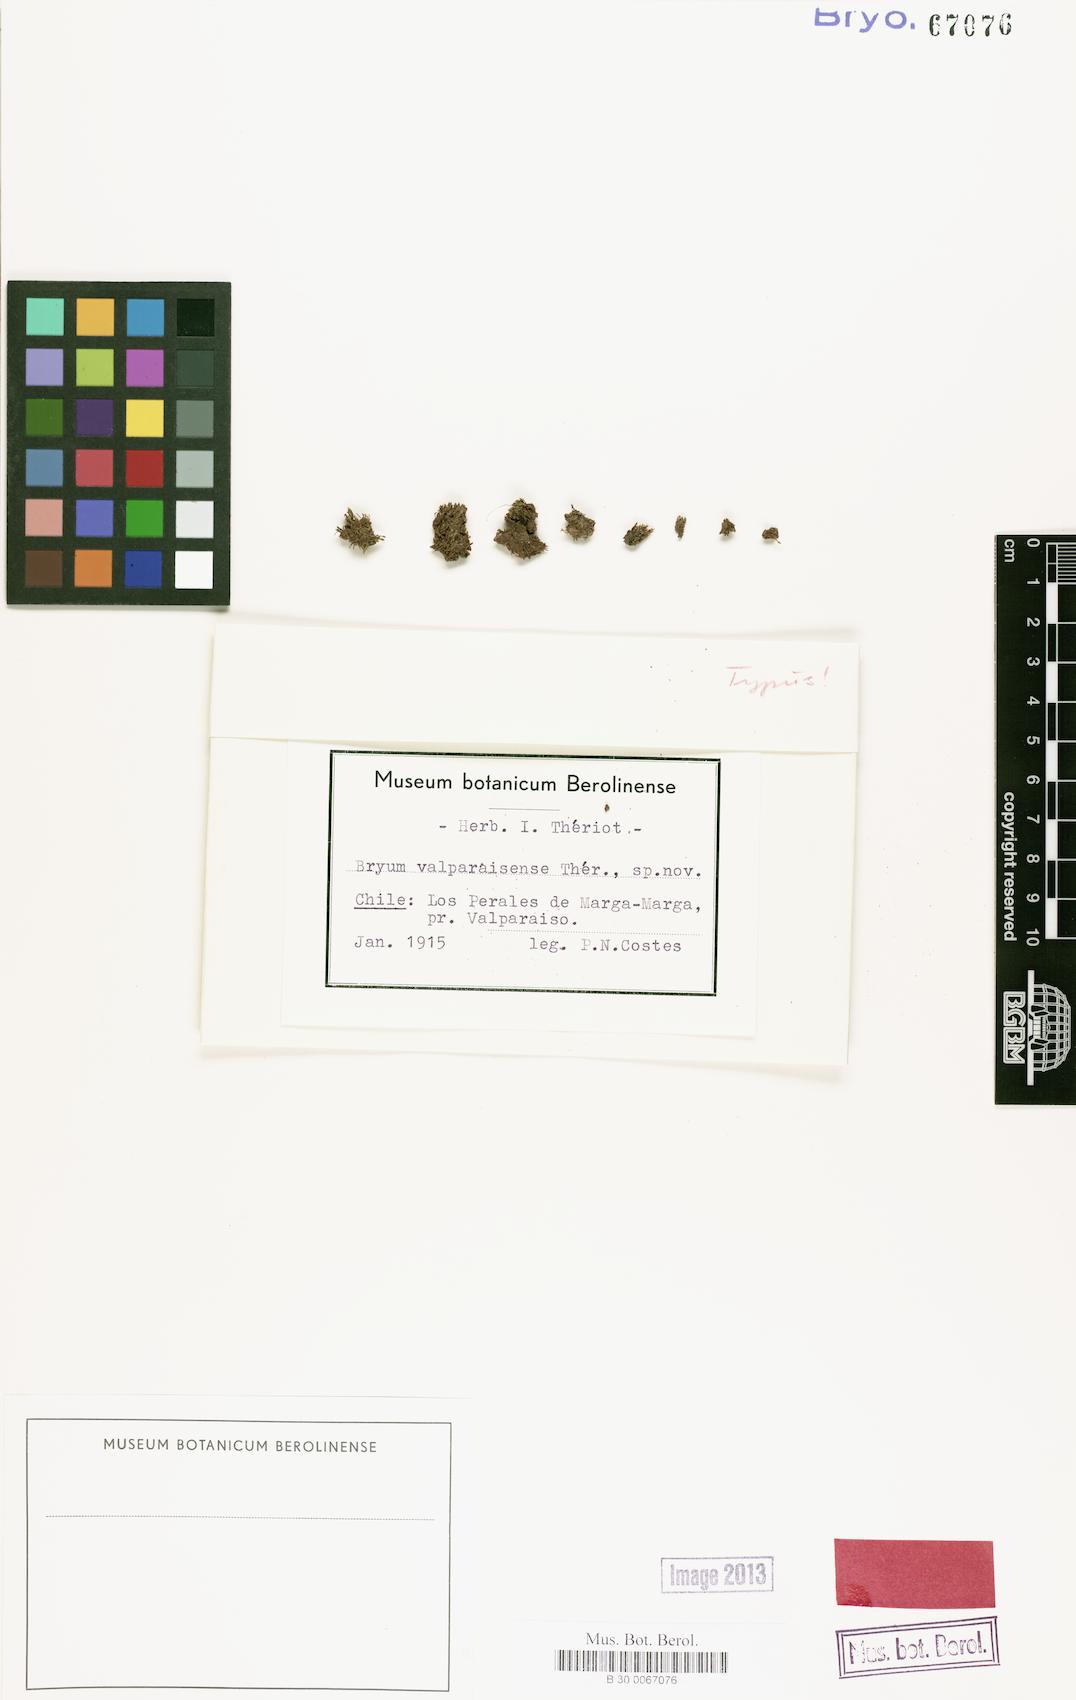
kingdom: Plantae
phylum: Bryophyta
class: Bryopsida
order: Bryales
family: Bryaceae
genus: Gemmabryum
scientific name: Gemmabryum valparaisense
